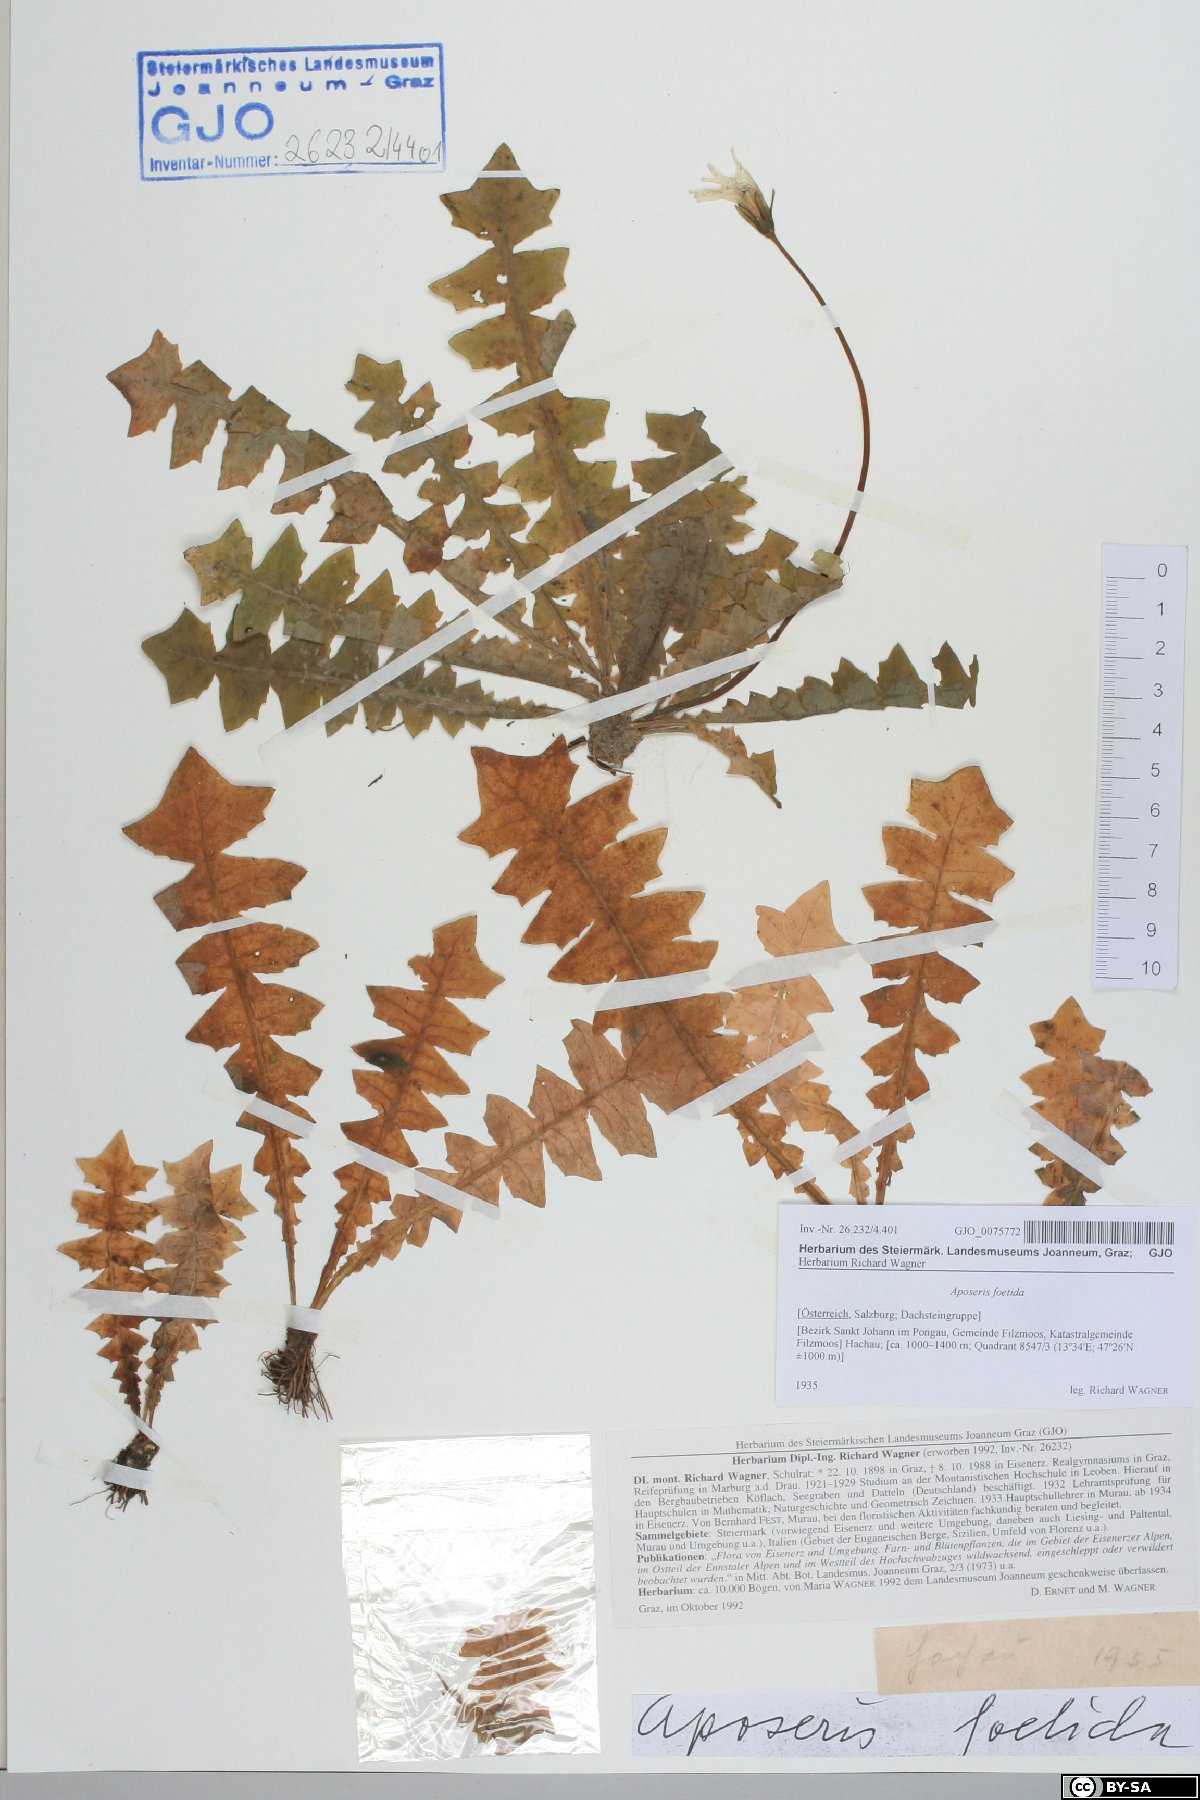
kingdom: Plantae
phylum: Tracheophyta
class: Magnoliopsida
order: Asterales
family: Asteraceae
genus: Aposeris
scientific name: Aposeris foetida
